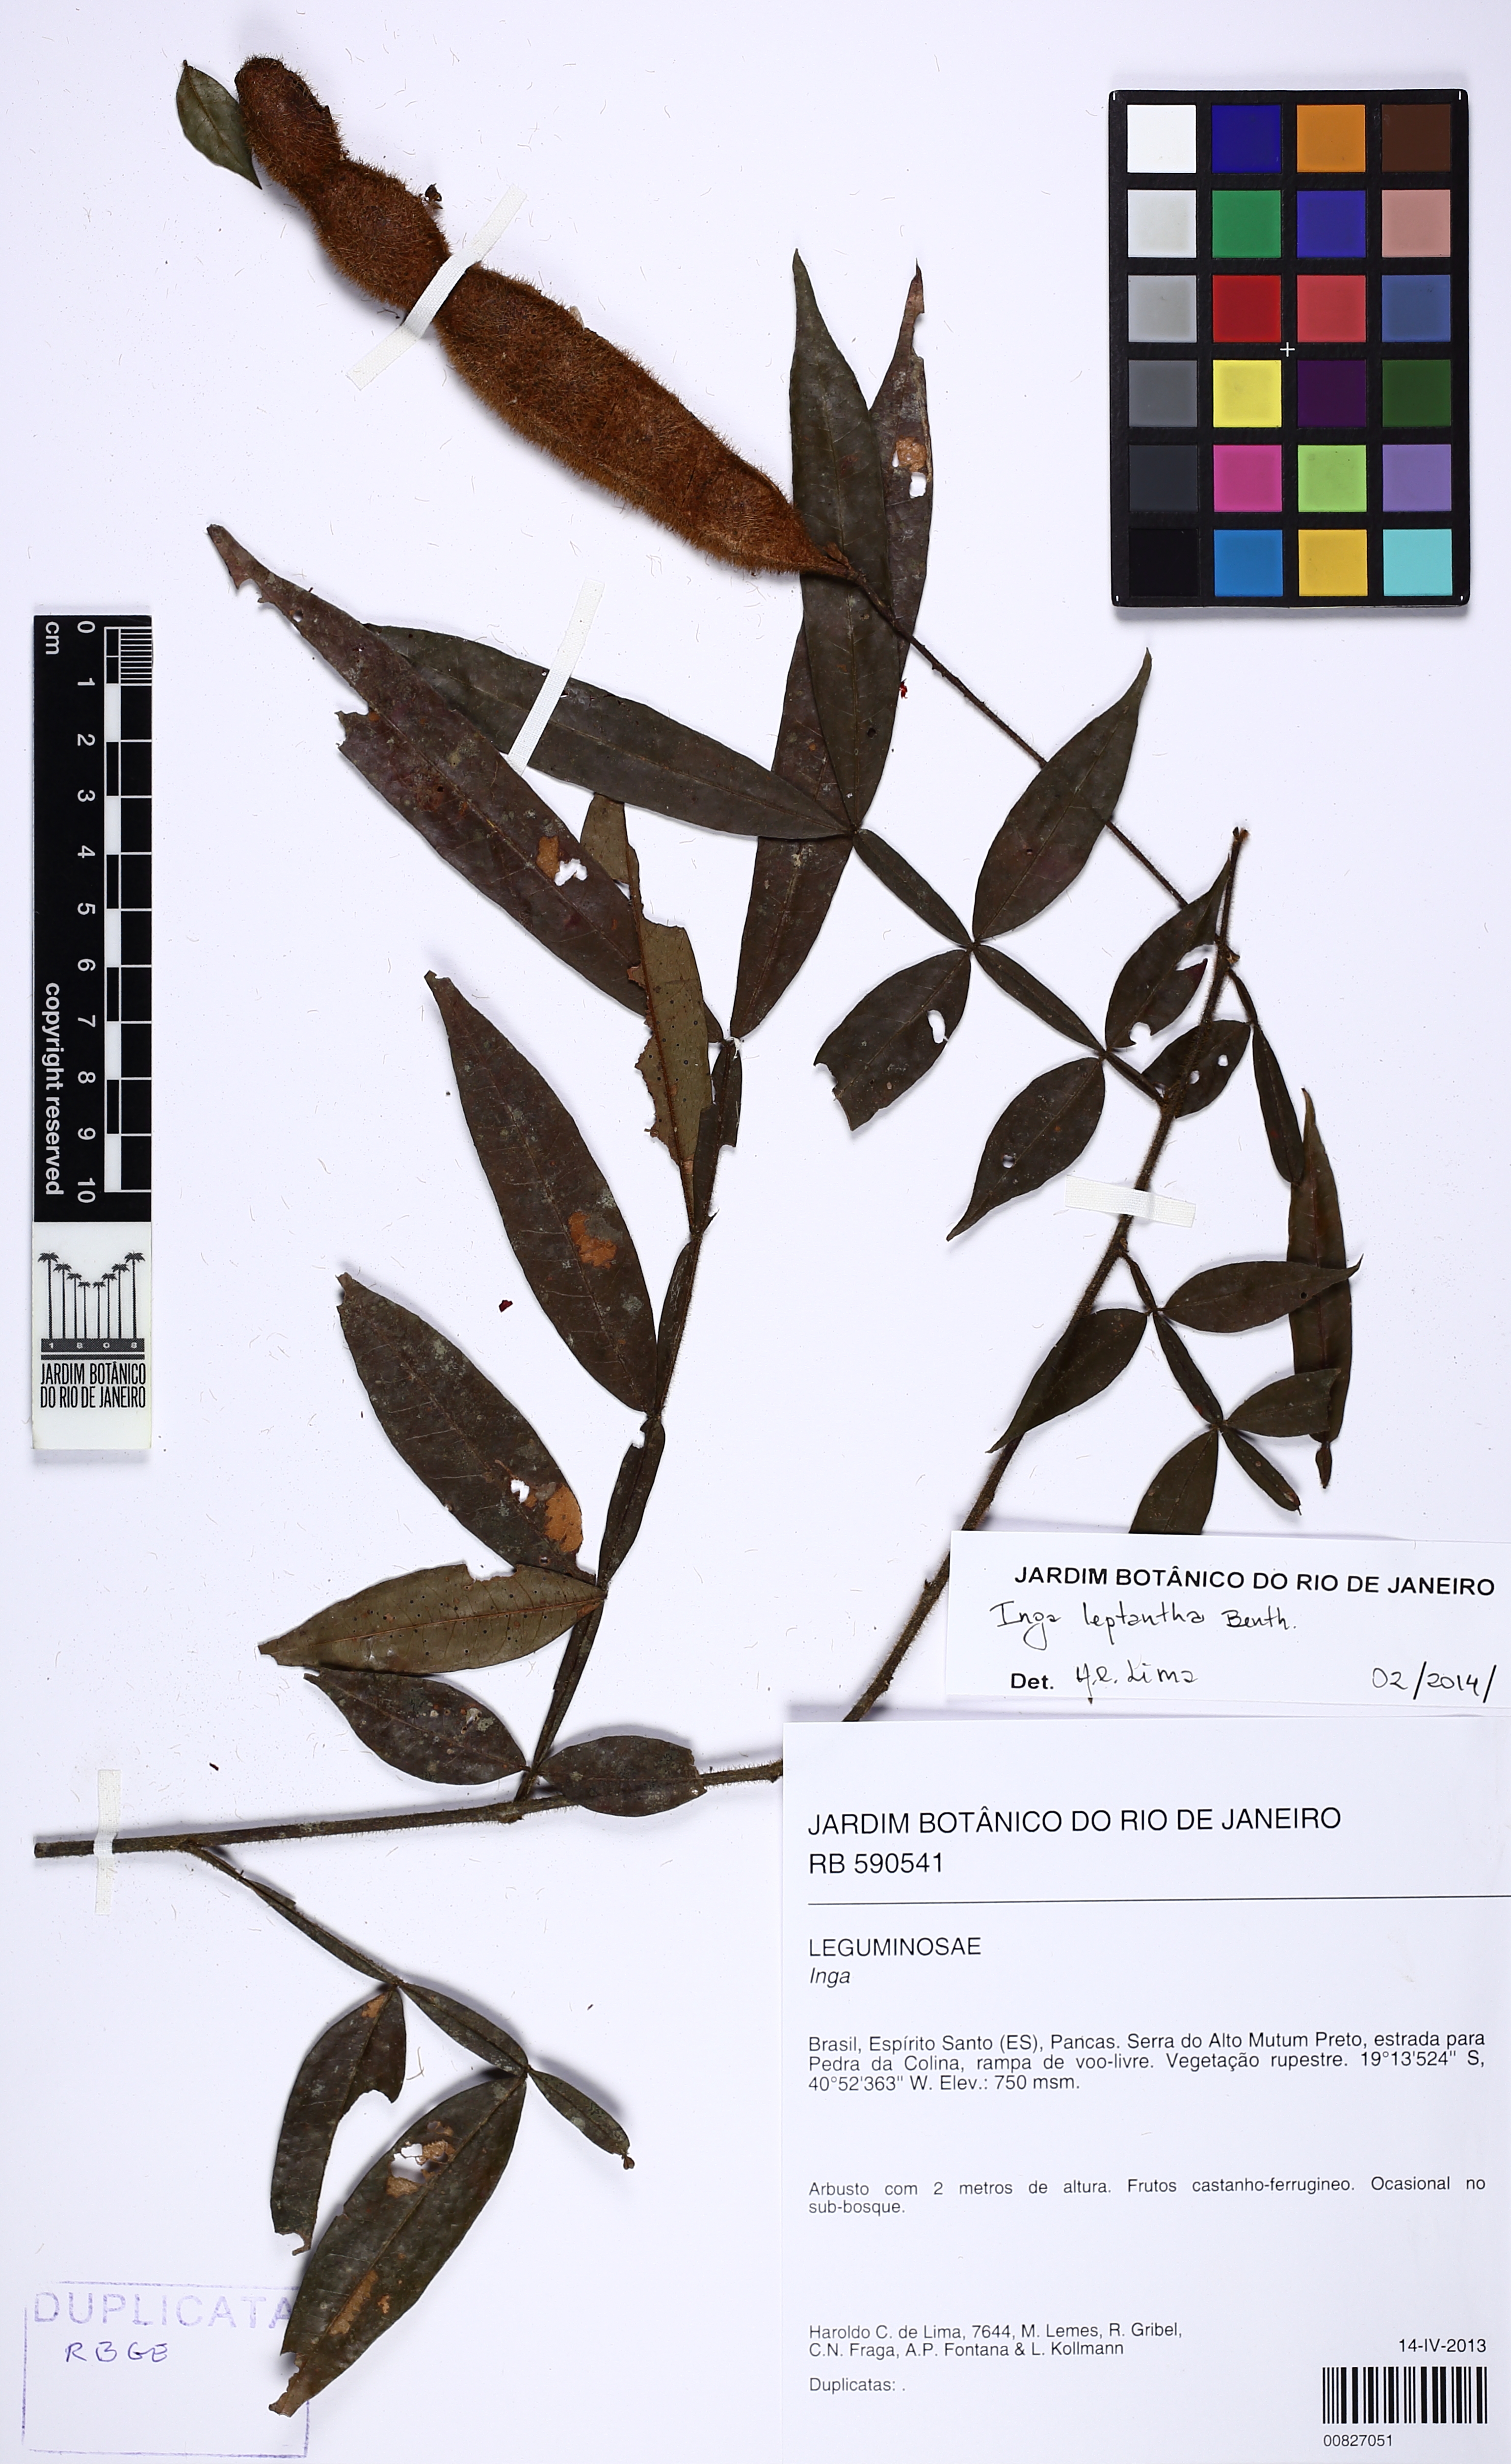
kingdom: Plantae
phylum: Tracheophyta
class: Magnoliopsida
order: Fabales
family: Fabaceae
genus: Inga
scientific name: Inga leptantha
